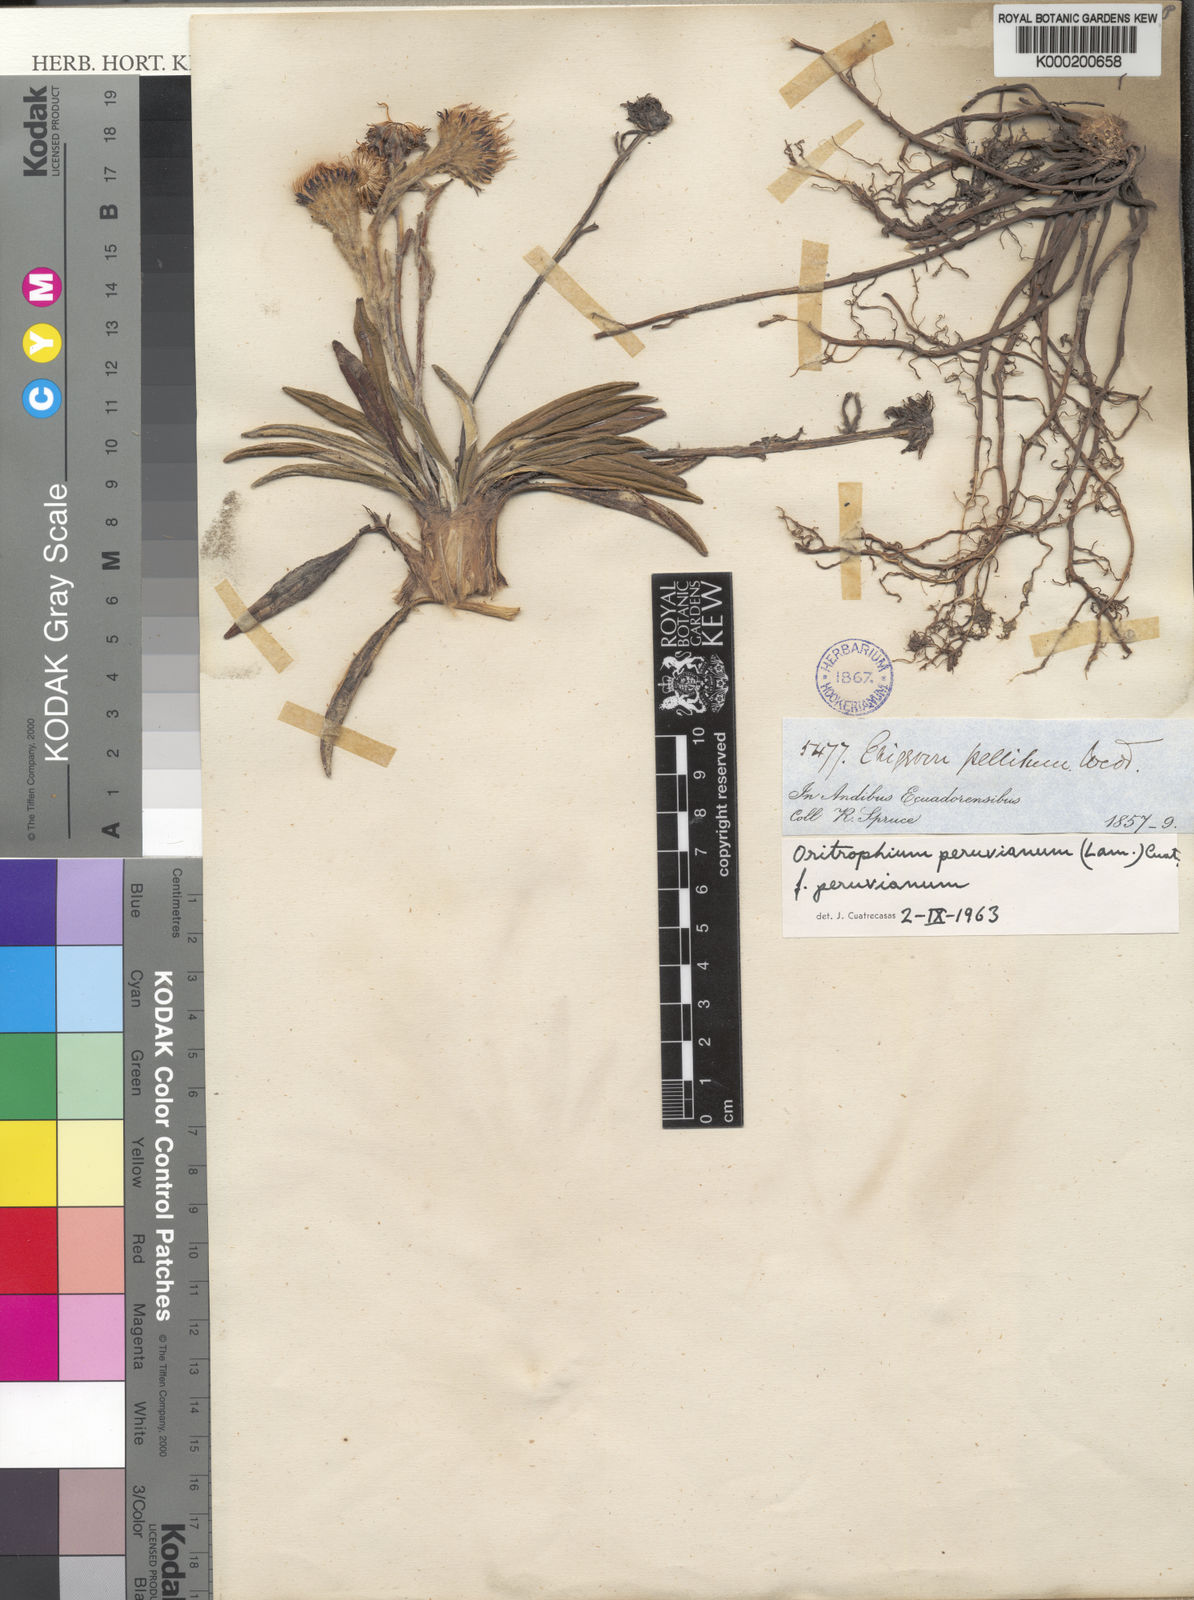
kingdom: Plantae
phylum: Tracheophyta
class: Magnoliopsida
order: Asterales
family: Asteraceae
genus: Oritrophium
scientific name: Oritrophium peruvianum
